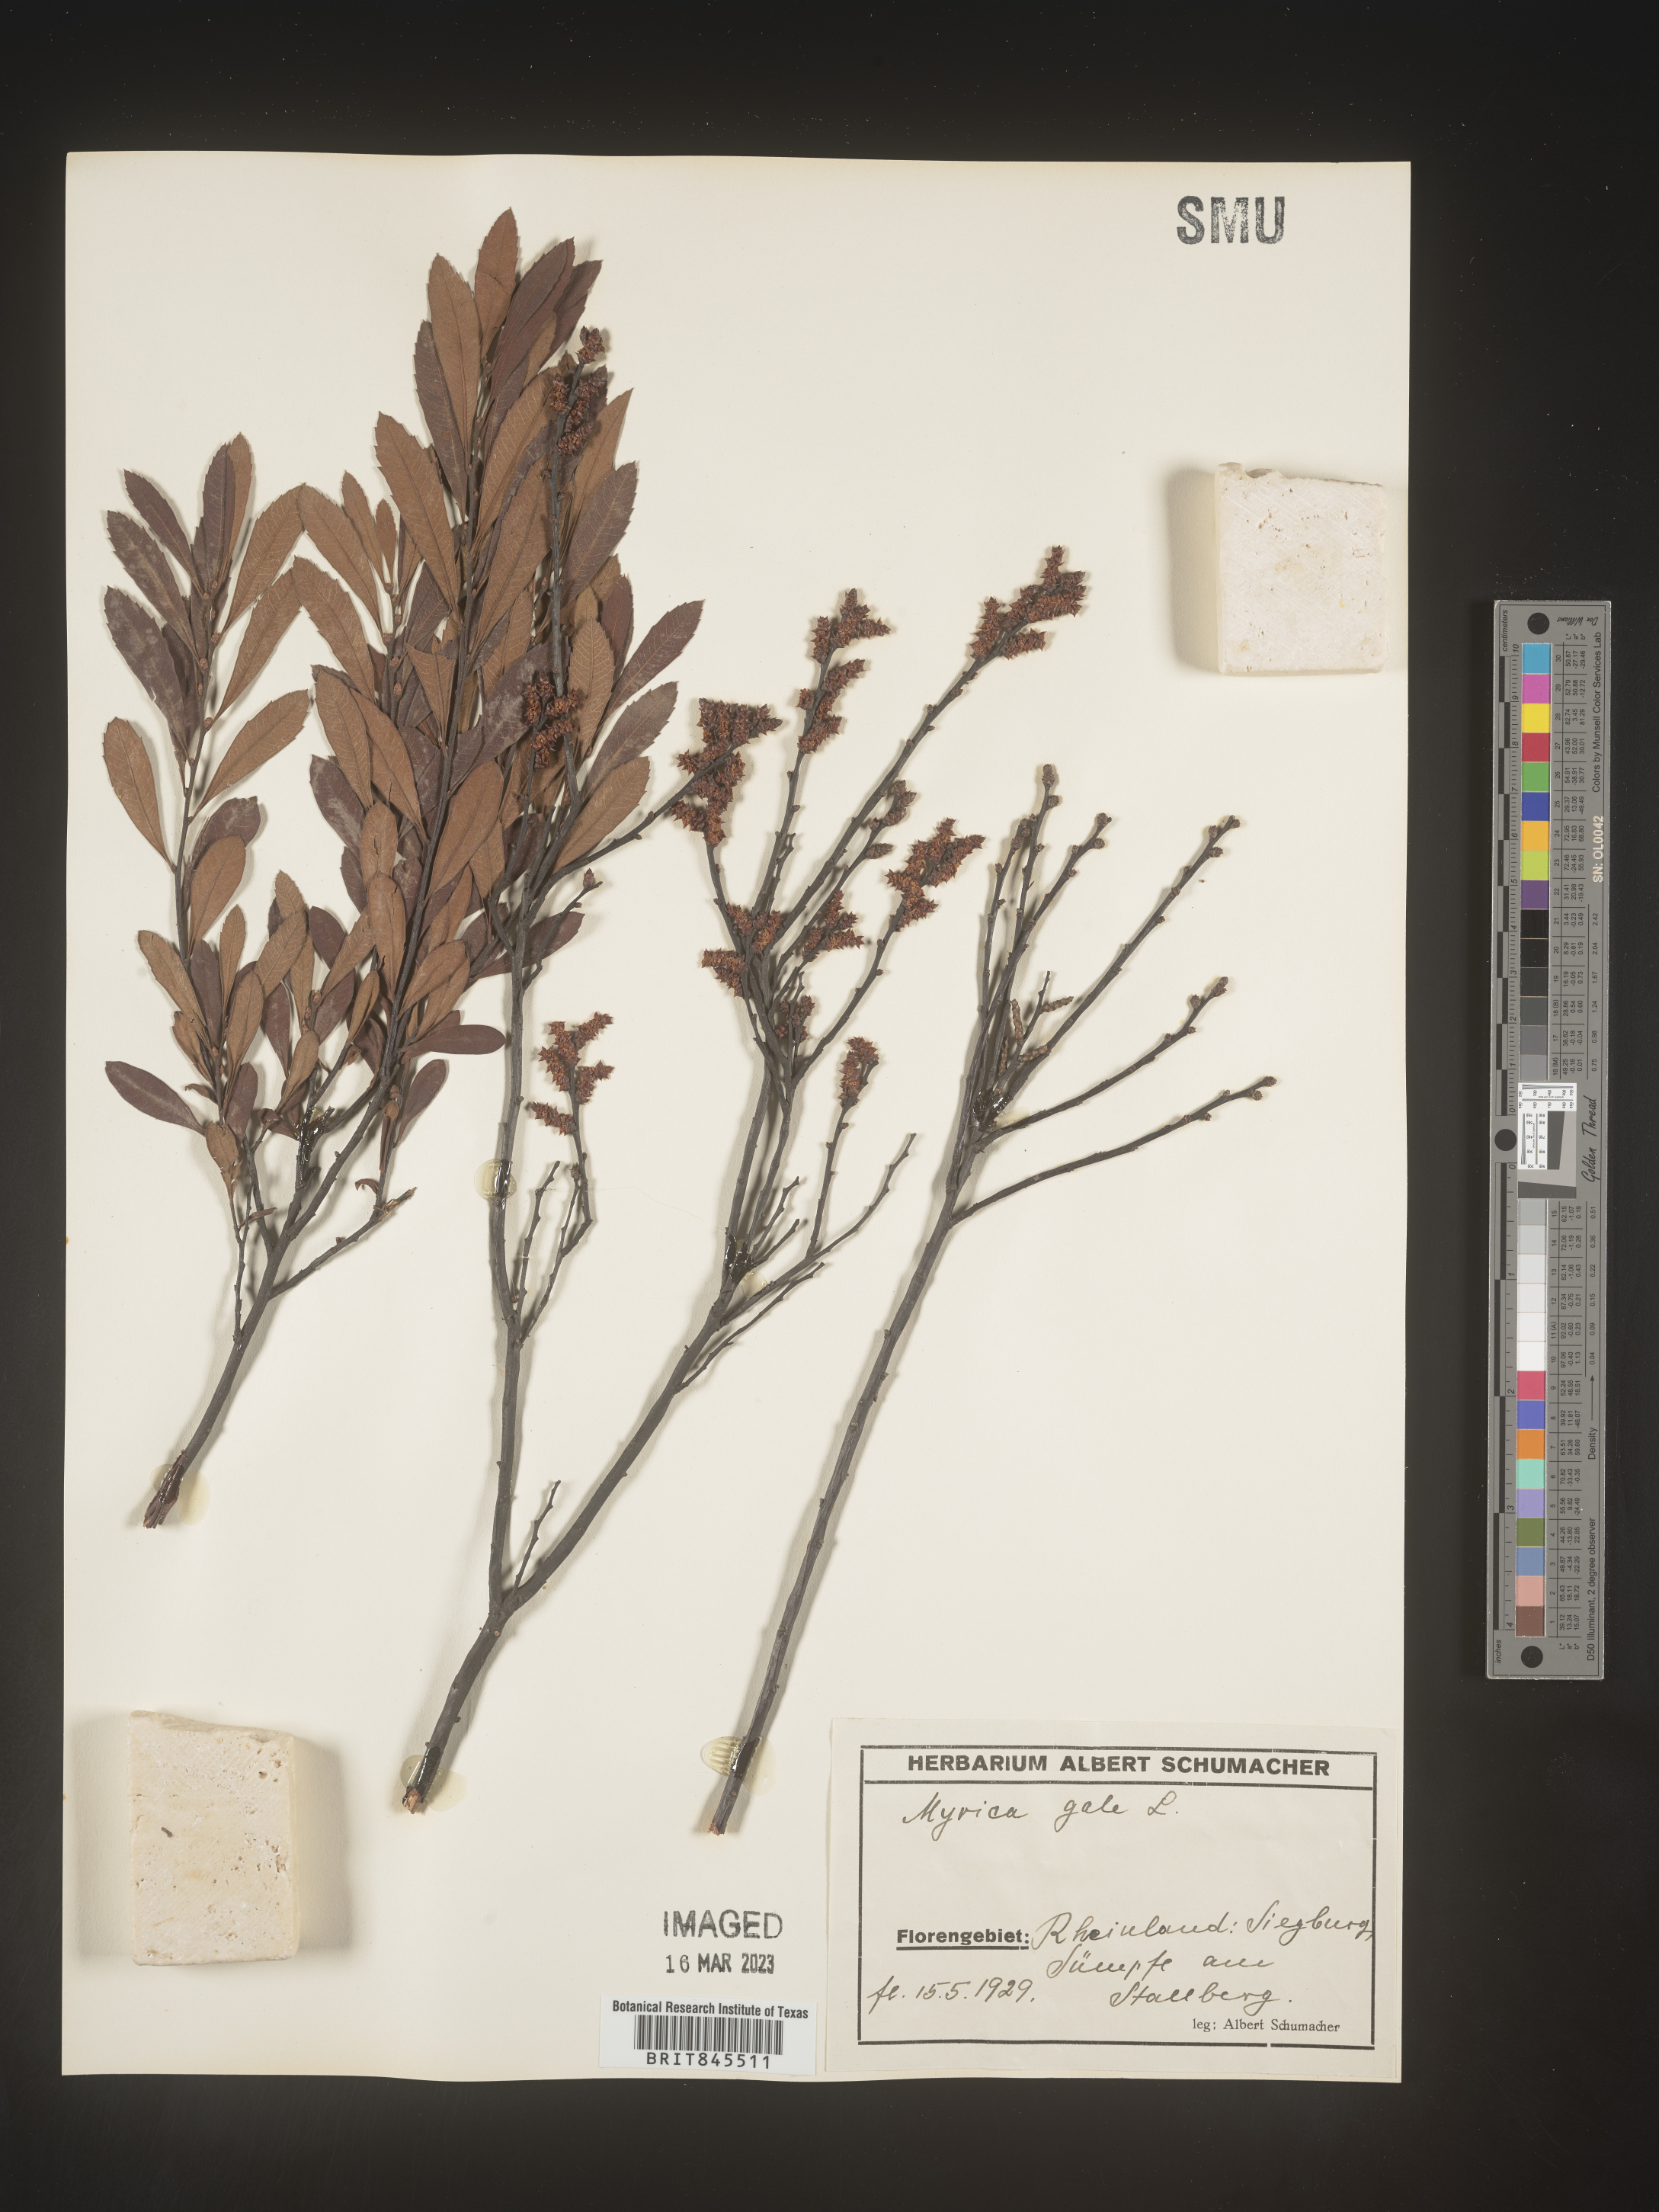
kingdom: Plantae
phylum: Tracheophyta
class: Magnoliopsida
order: Fagales
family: Myricaceae
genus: Myrica
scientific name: Myrica
